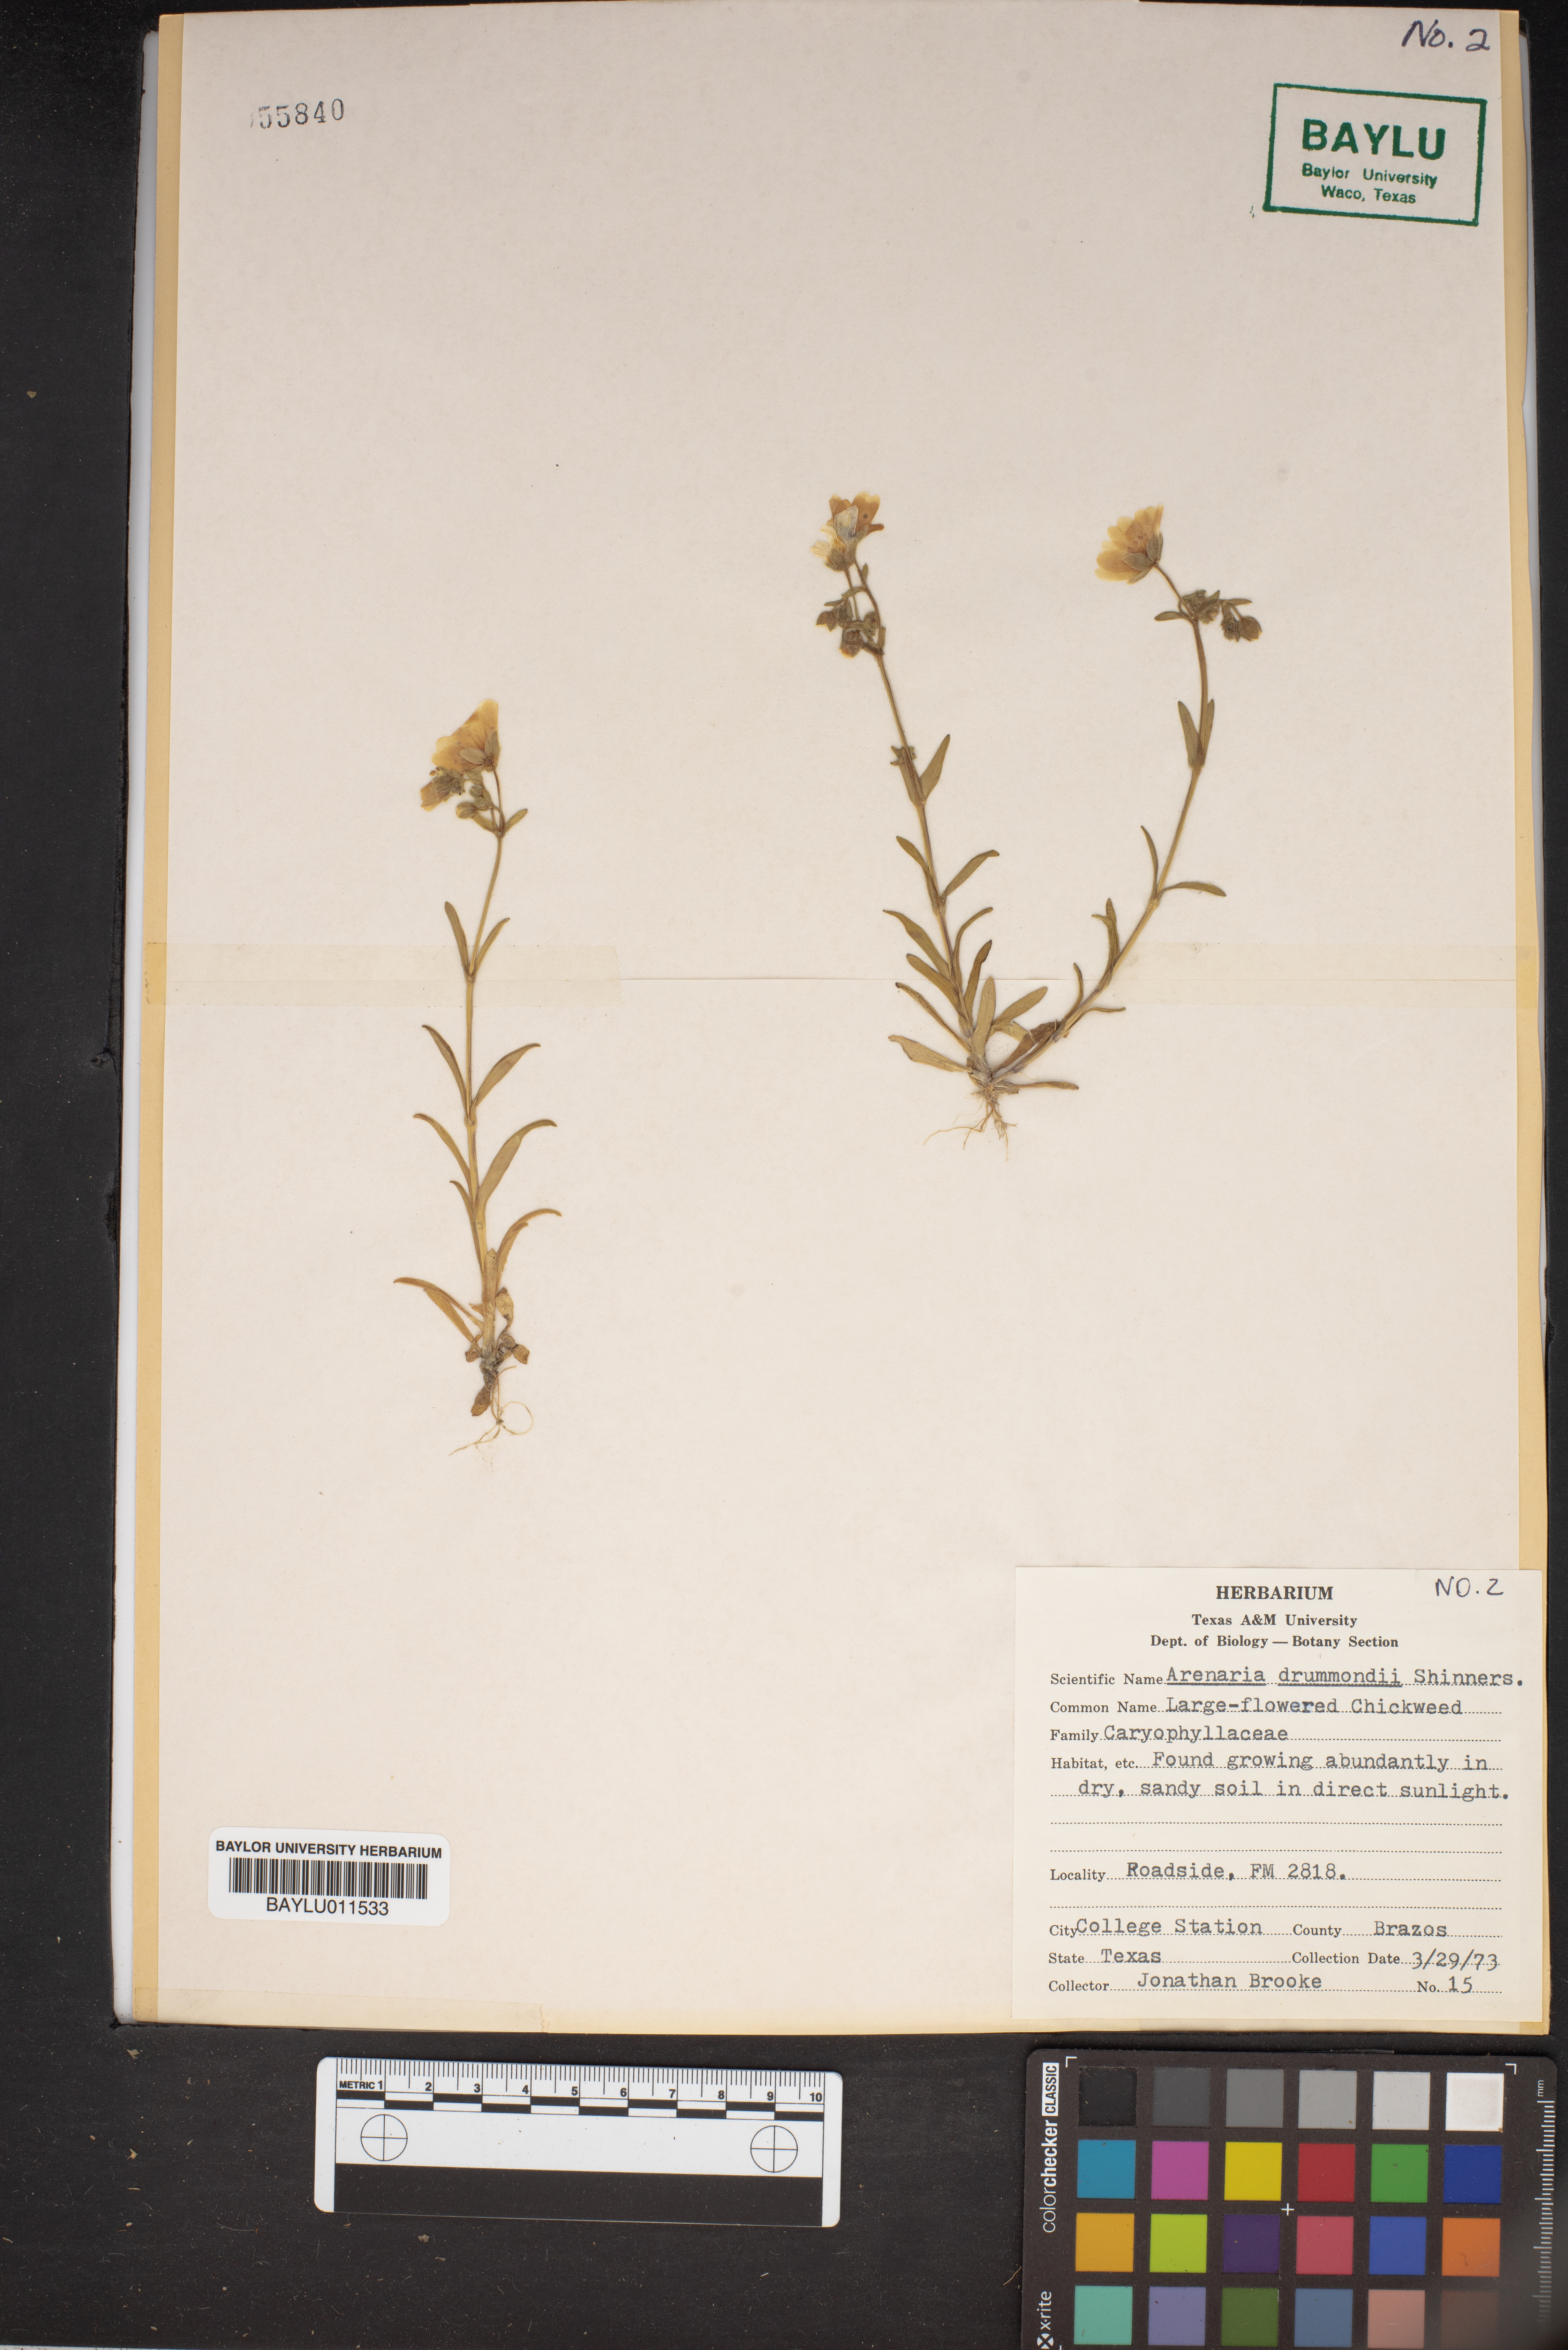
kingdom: Plantae
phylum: Tracheophyta
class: Magnoliopsida
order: Caryophyllales
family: Caryophyllaceae
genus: Geocarpon
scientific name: Geocarpon nuttallii
